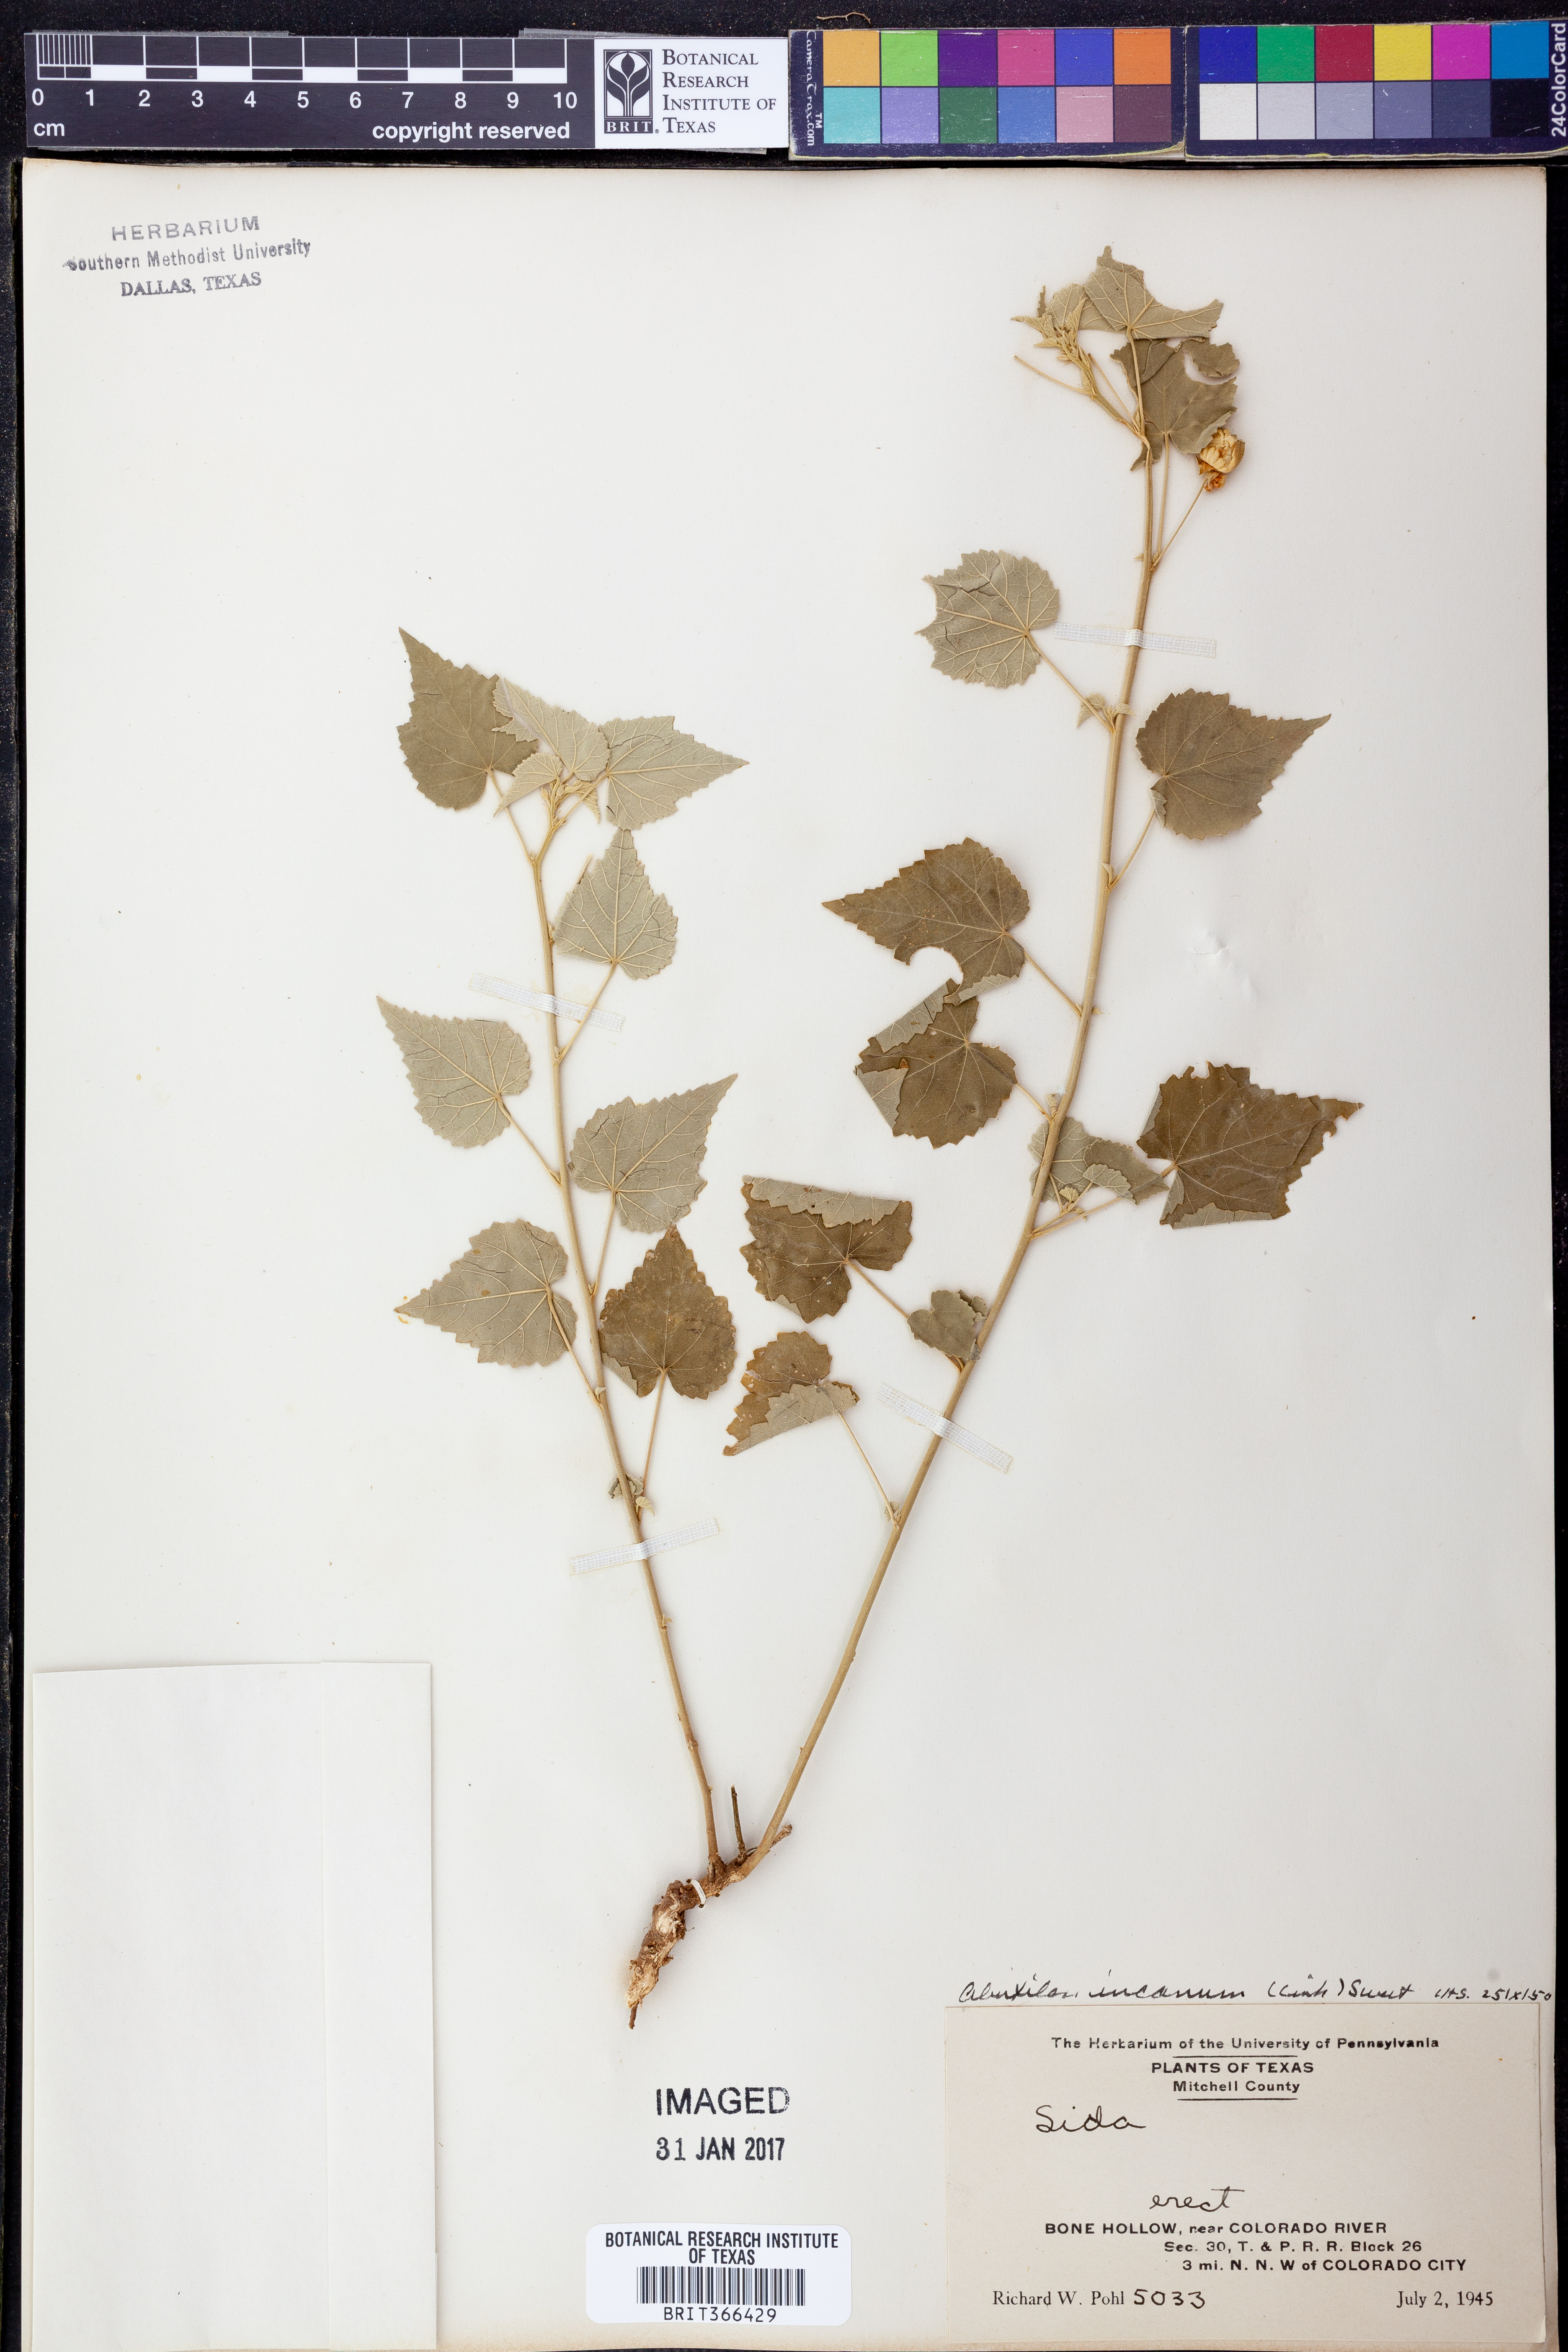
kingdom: Plantae
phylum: Tracheophyta
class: Magnoliopsida
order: Malvales
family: Malvaceae
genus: Abutilon
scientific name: Abutilon incanum
